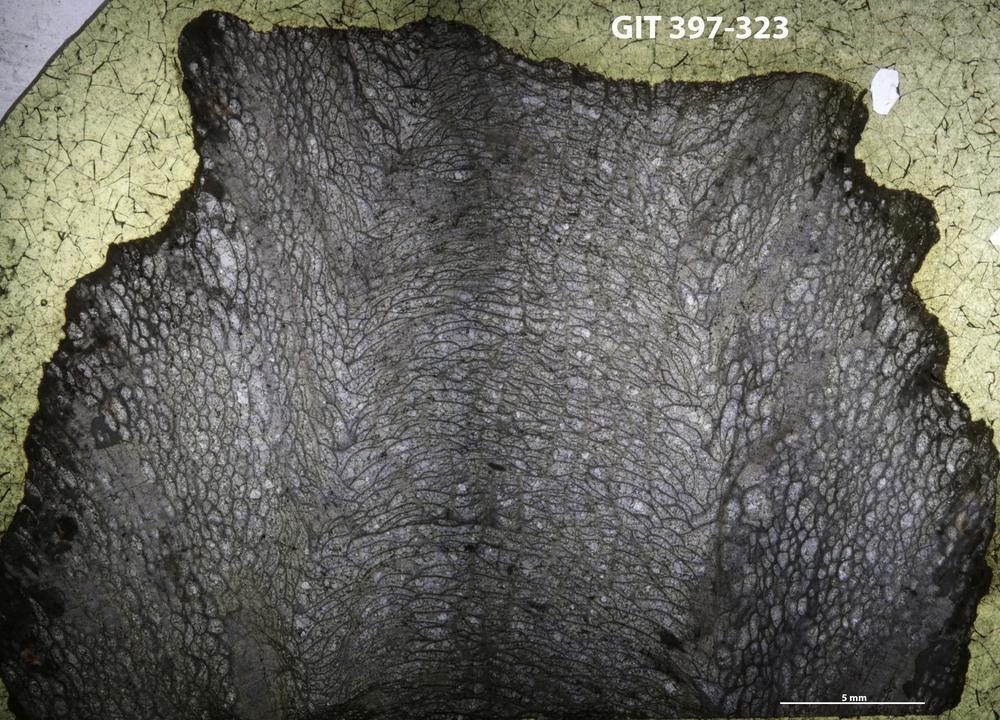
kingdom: Animalia
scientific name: Animalia
